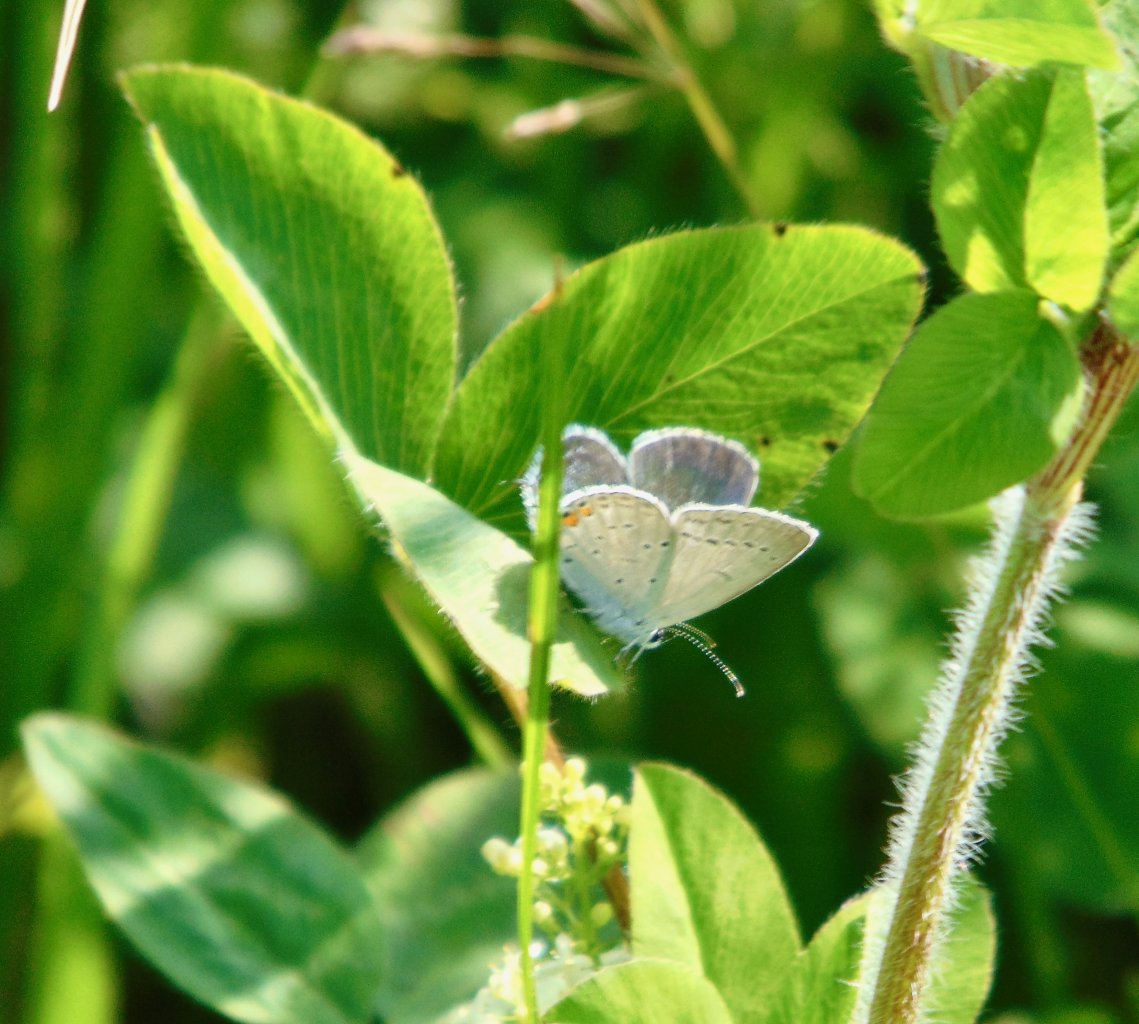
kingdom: Animalia
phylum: Arthropoda
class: Insecta
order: Lepidoptera
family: Lycaenidae
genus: Elkalyce
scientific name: Elkalyce comyntas
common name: Eastern Tailed-Blue
